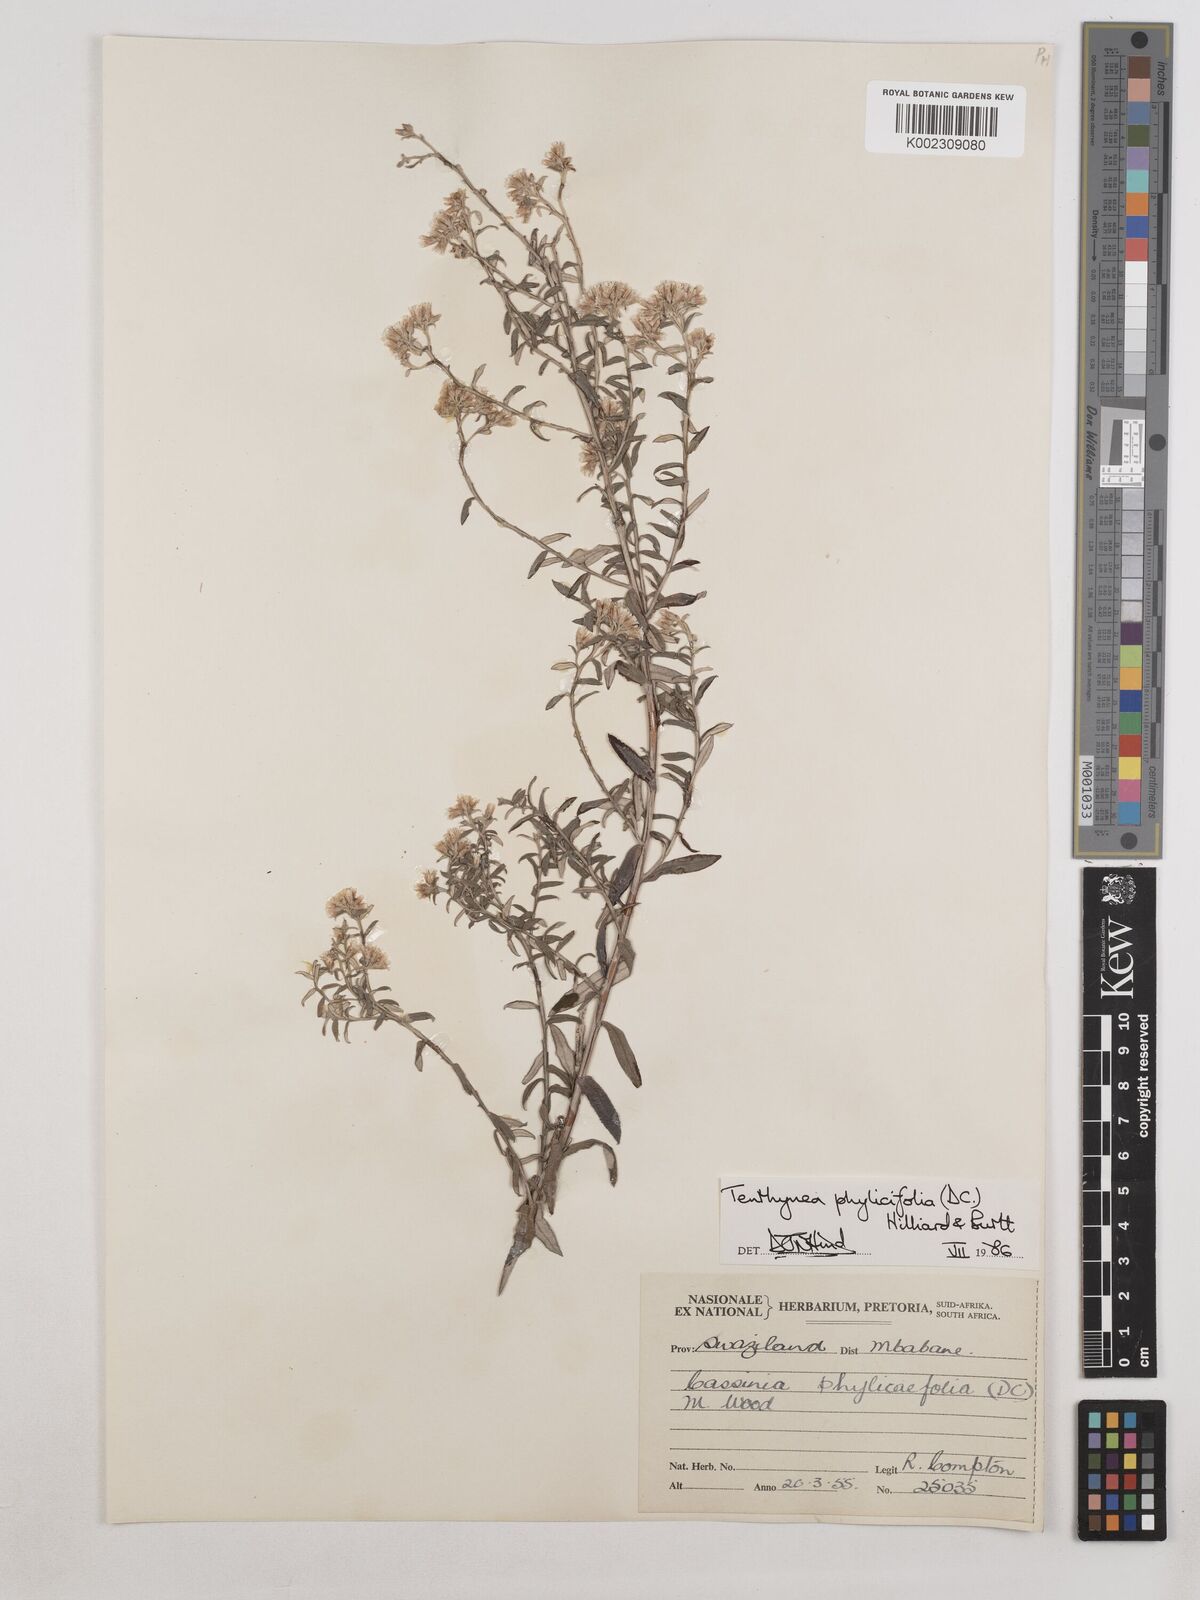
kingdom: Plantae
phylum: Tracheophyta
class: Magnoliopsida
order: Asterales
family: Asteraceae
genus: Tenrhynea
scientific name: Tenrhynea phylicifolia
